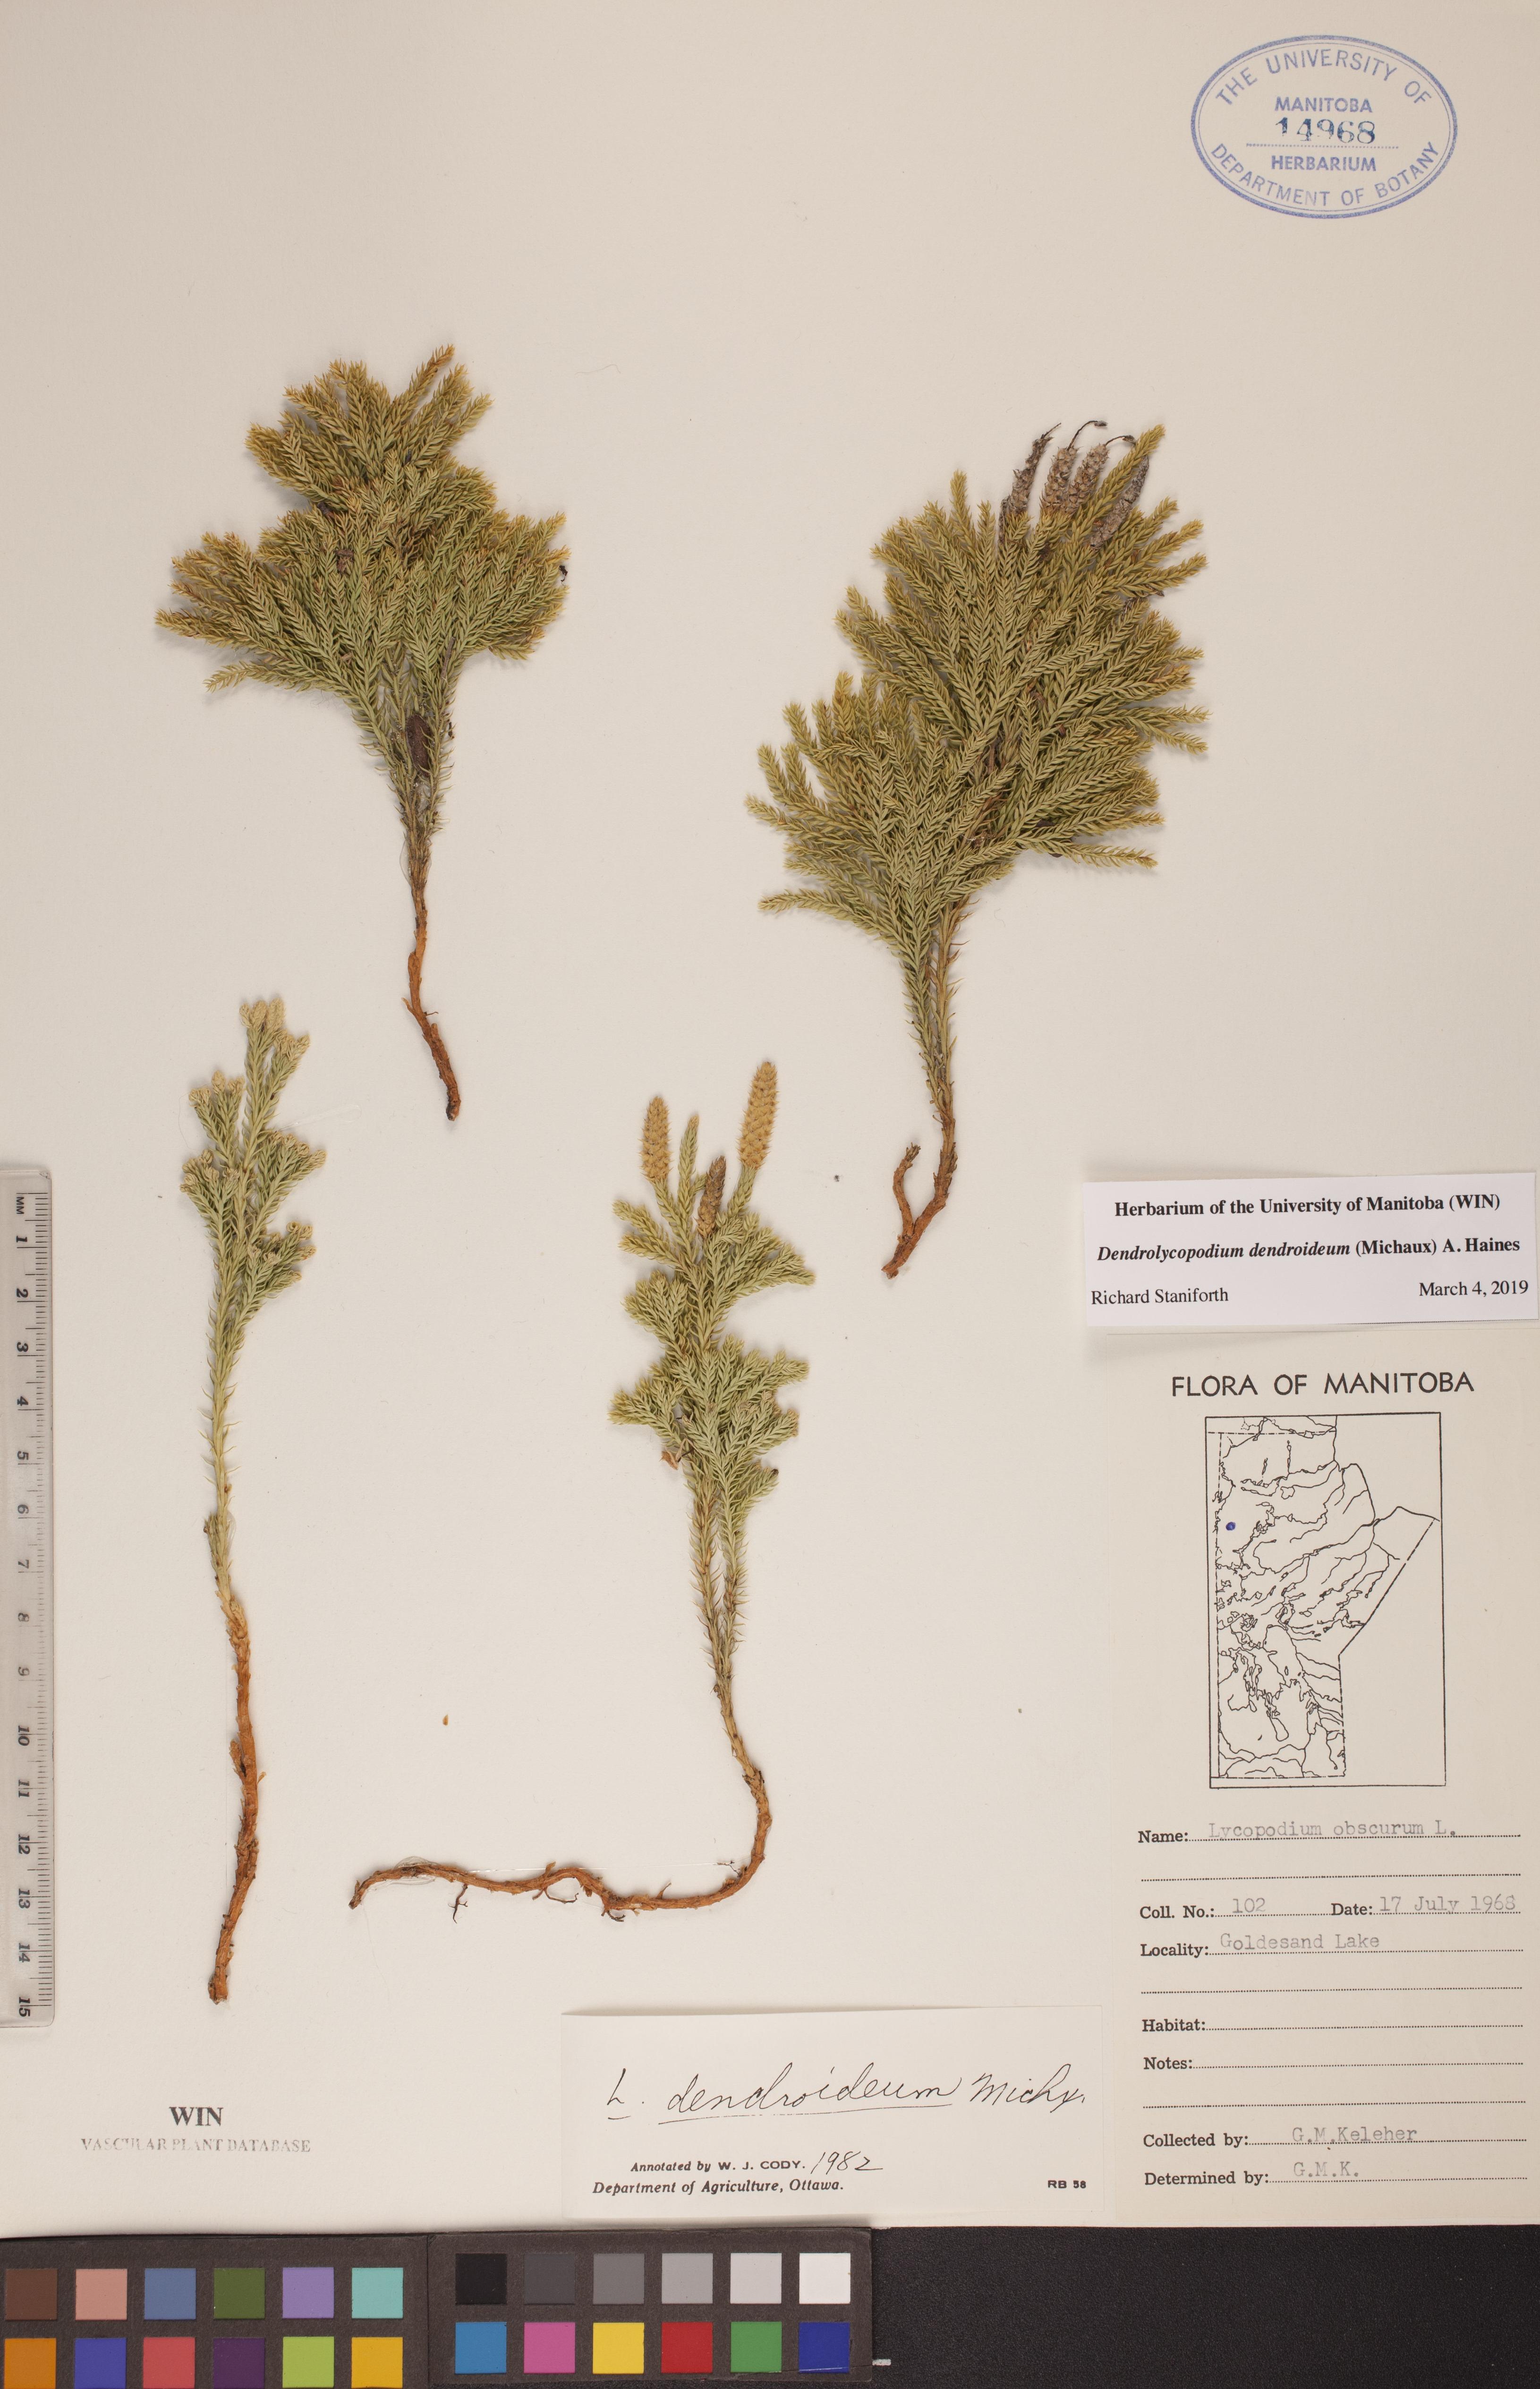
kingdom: Plantae
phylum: Tracheophyta
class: Lycopodiopsida
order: Lycopodiales
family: Lycopodiaceae
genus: Dendrolycopodium
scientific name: Dendrolycopodium dendroideum
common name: Northern tree-clubmoss
